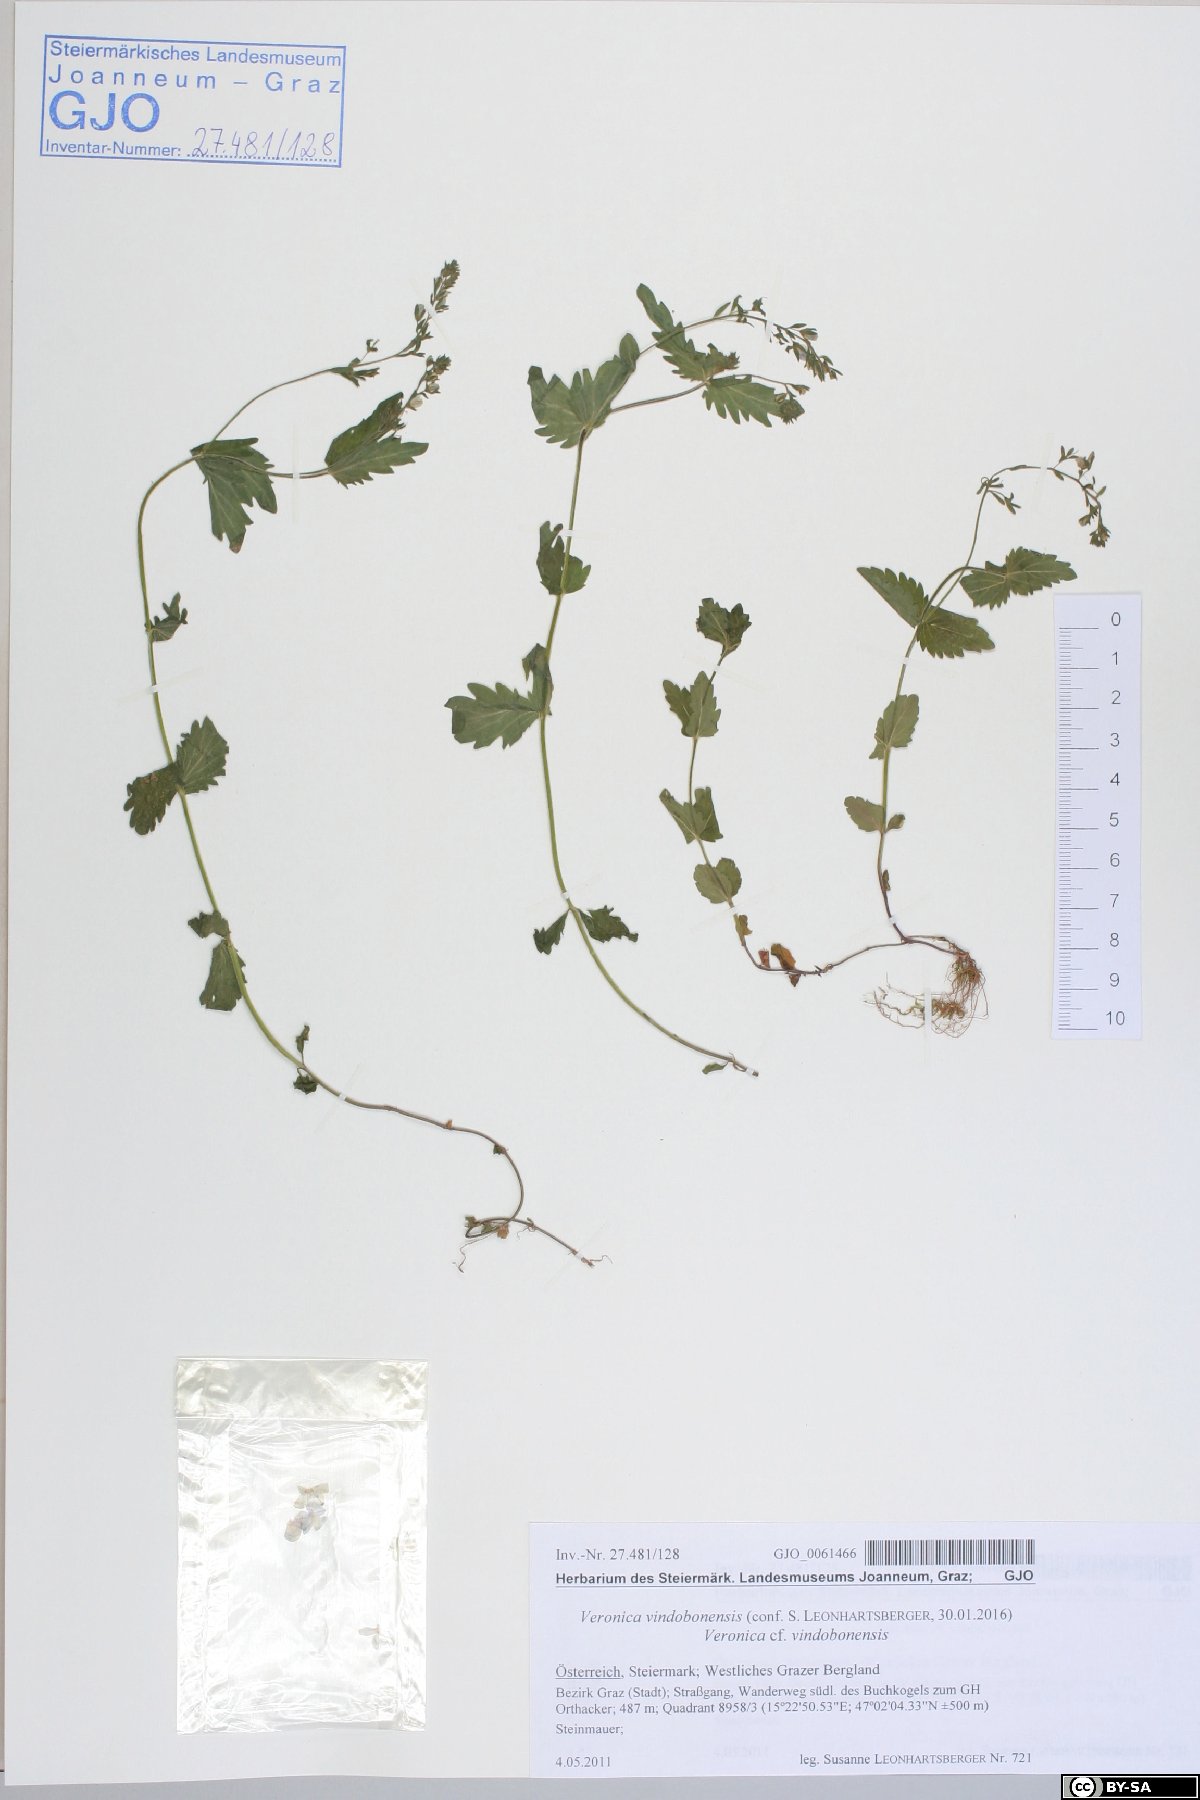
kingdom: Plantae
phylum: Tracheophyta
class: Magnoliopsida
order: Lamiales
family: Plantaginaceae
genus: Veronica
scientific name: Veronica vindobonensis
